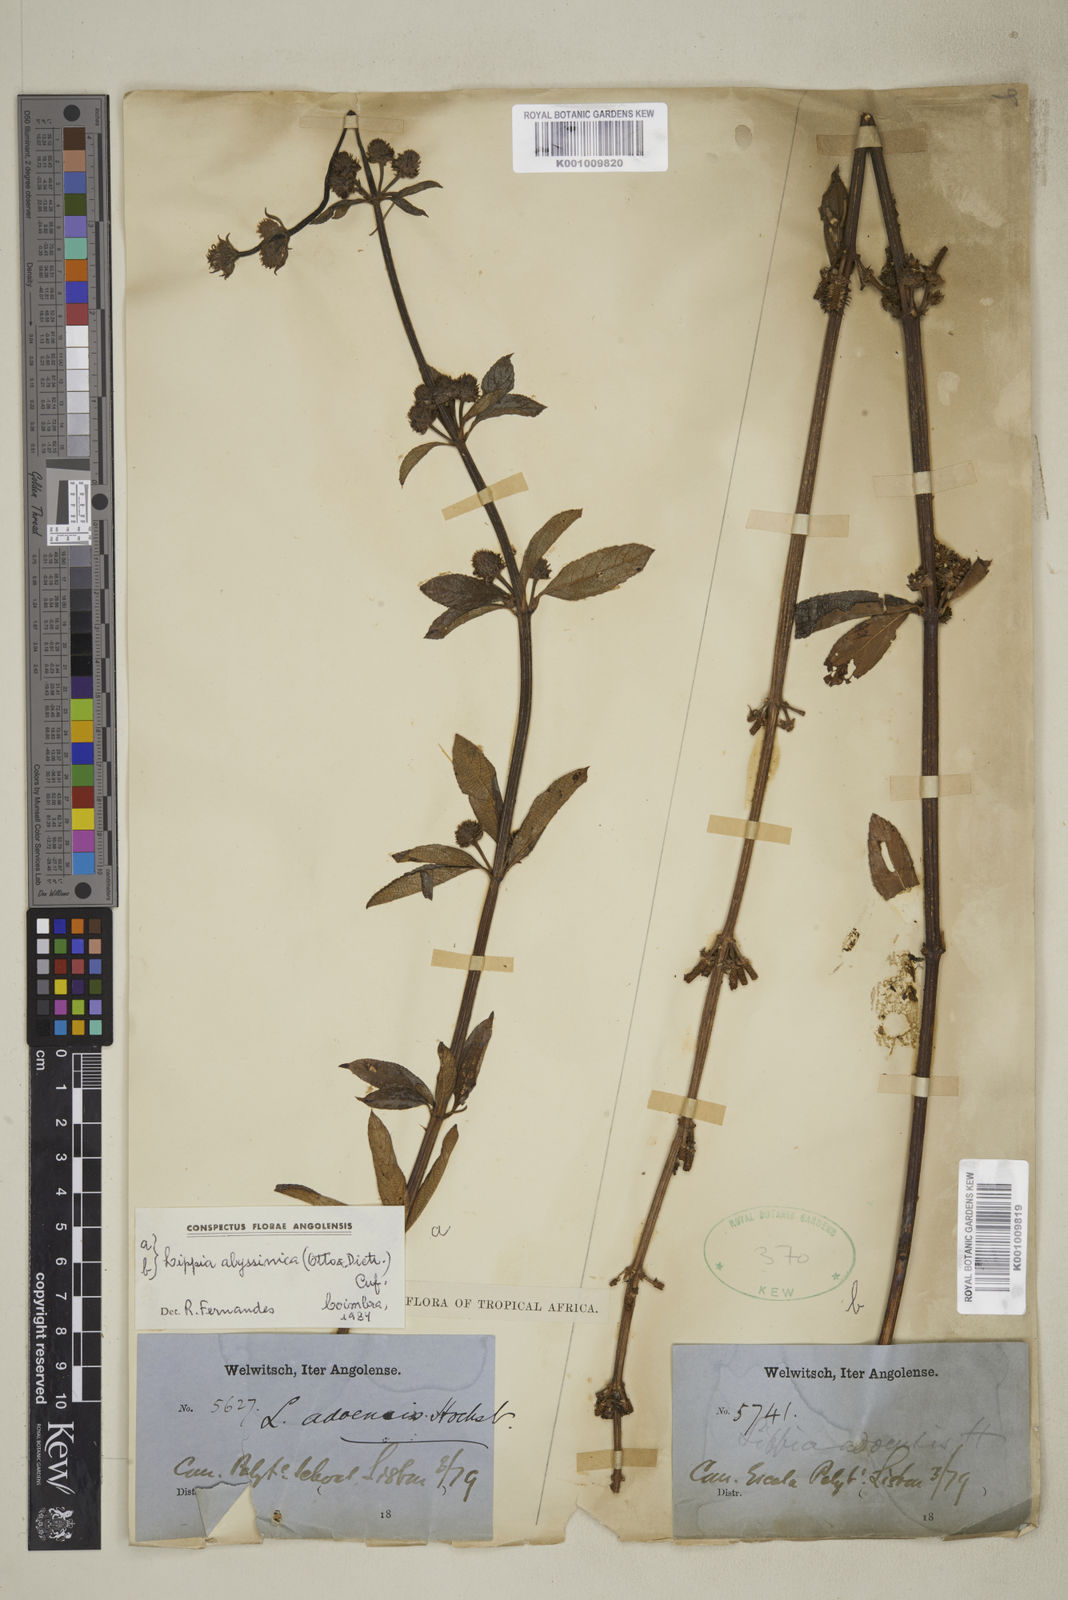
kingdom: Plantae
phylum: Tracheophyta
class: Magnoliopsida
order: Lamiales
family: Verbenaceae
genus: Lippia
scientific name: Lippia abyssinica
